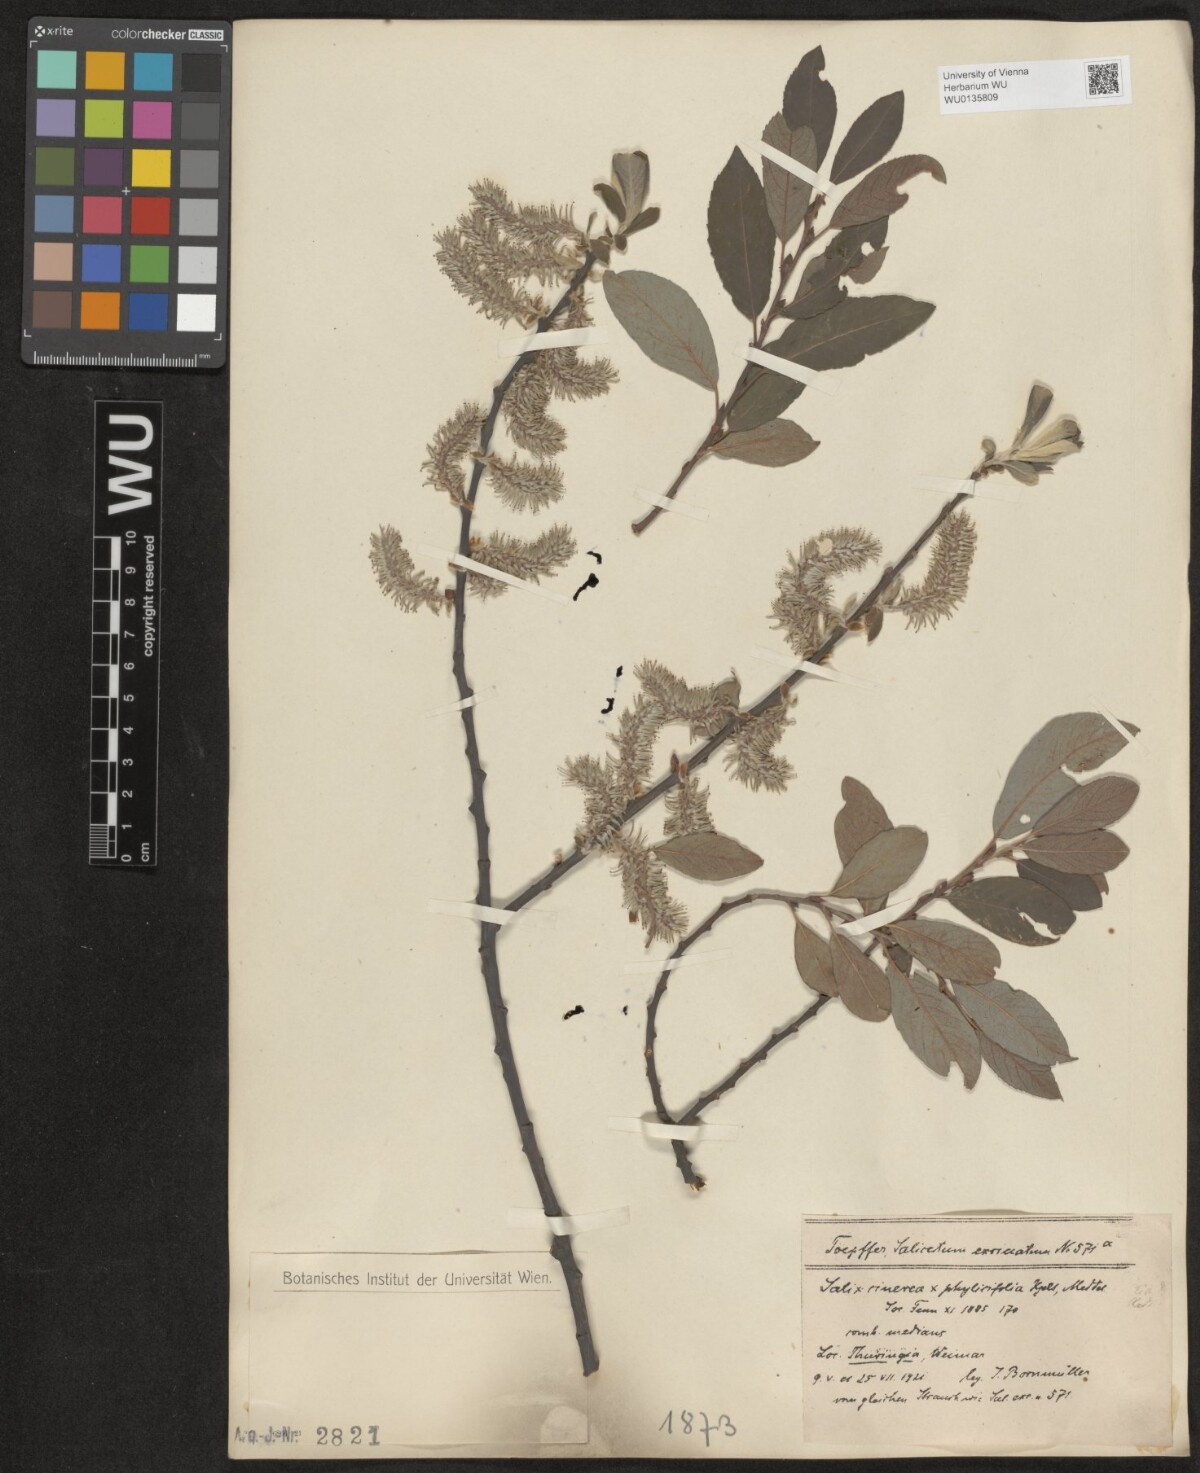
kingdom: Plantae
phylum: Tracheophyta
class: Magnoliopsida
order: Malpighiales
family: Salicaceae
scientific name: Salicaceae
